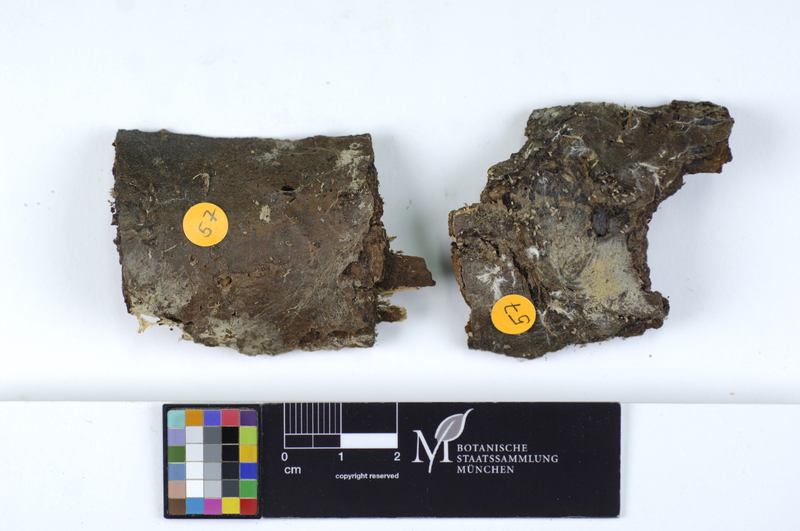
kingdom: Plantae
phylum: Tracheophyta
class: Magnoliopsida
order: Fagales
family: Betulaceae
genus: Alnus
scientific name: Alnus
